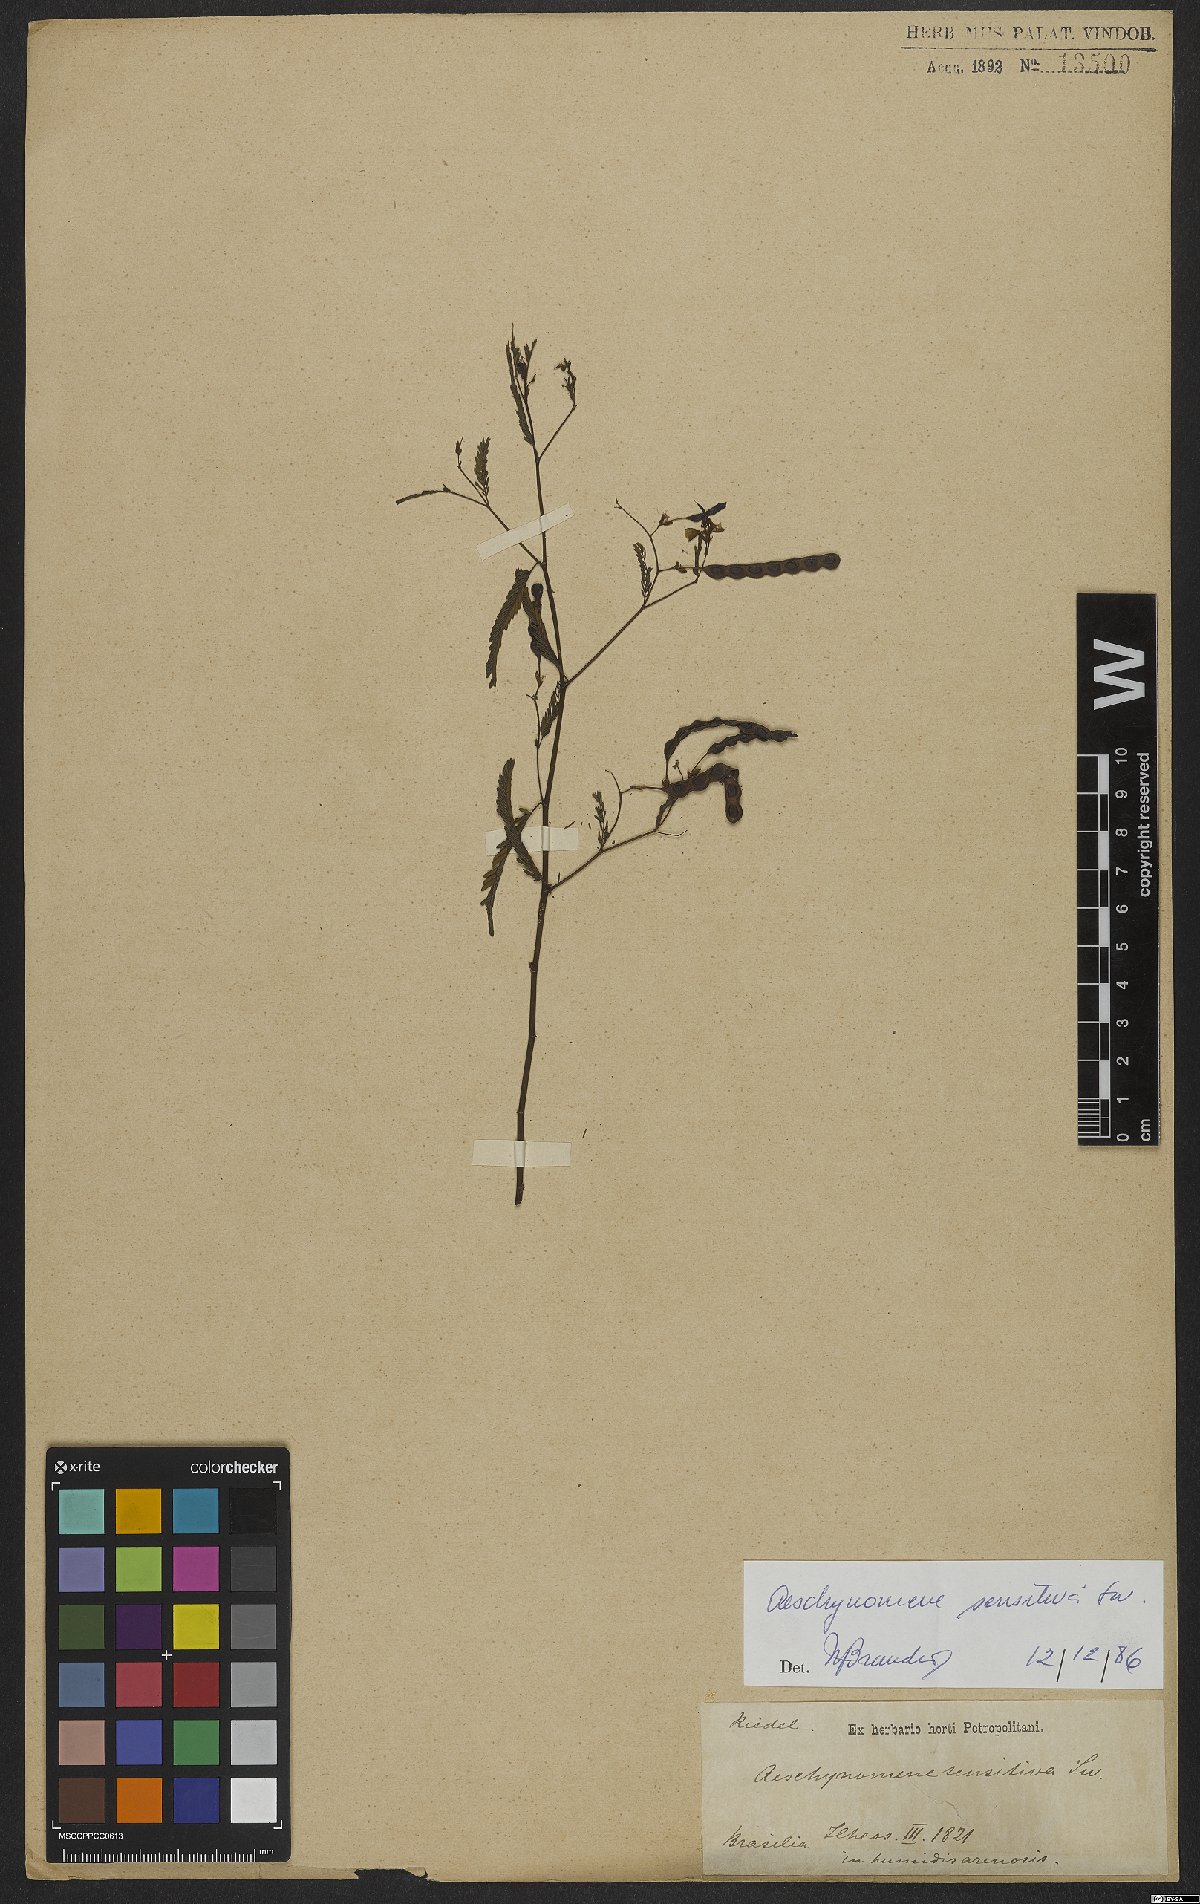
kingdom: Plantae
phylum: Tracheophyta
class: Magnoliopsida
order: Fabales
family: Fabaceae
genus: Aeschynomene
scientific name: Aeschynomene sensitiva
